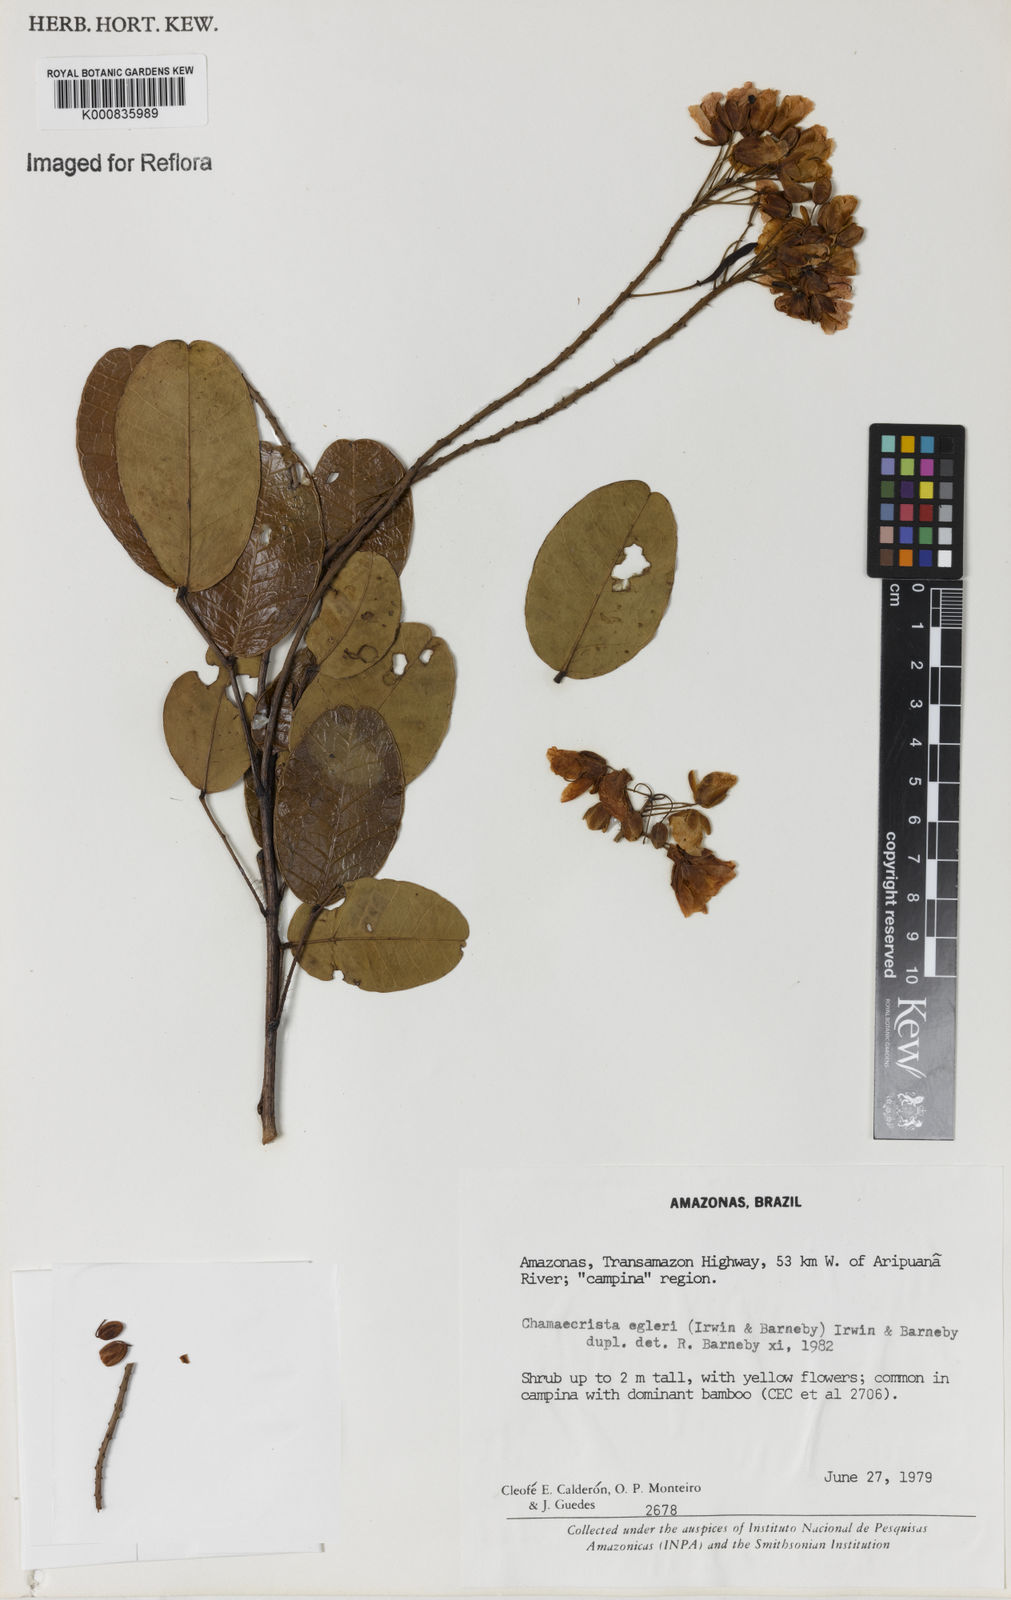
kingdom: Plantae
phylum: Tracheophyta
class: Magnoliopsida
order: Fabales
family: Fabaceae
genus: Chamaecrista
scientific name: Chamaecrista egleri
